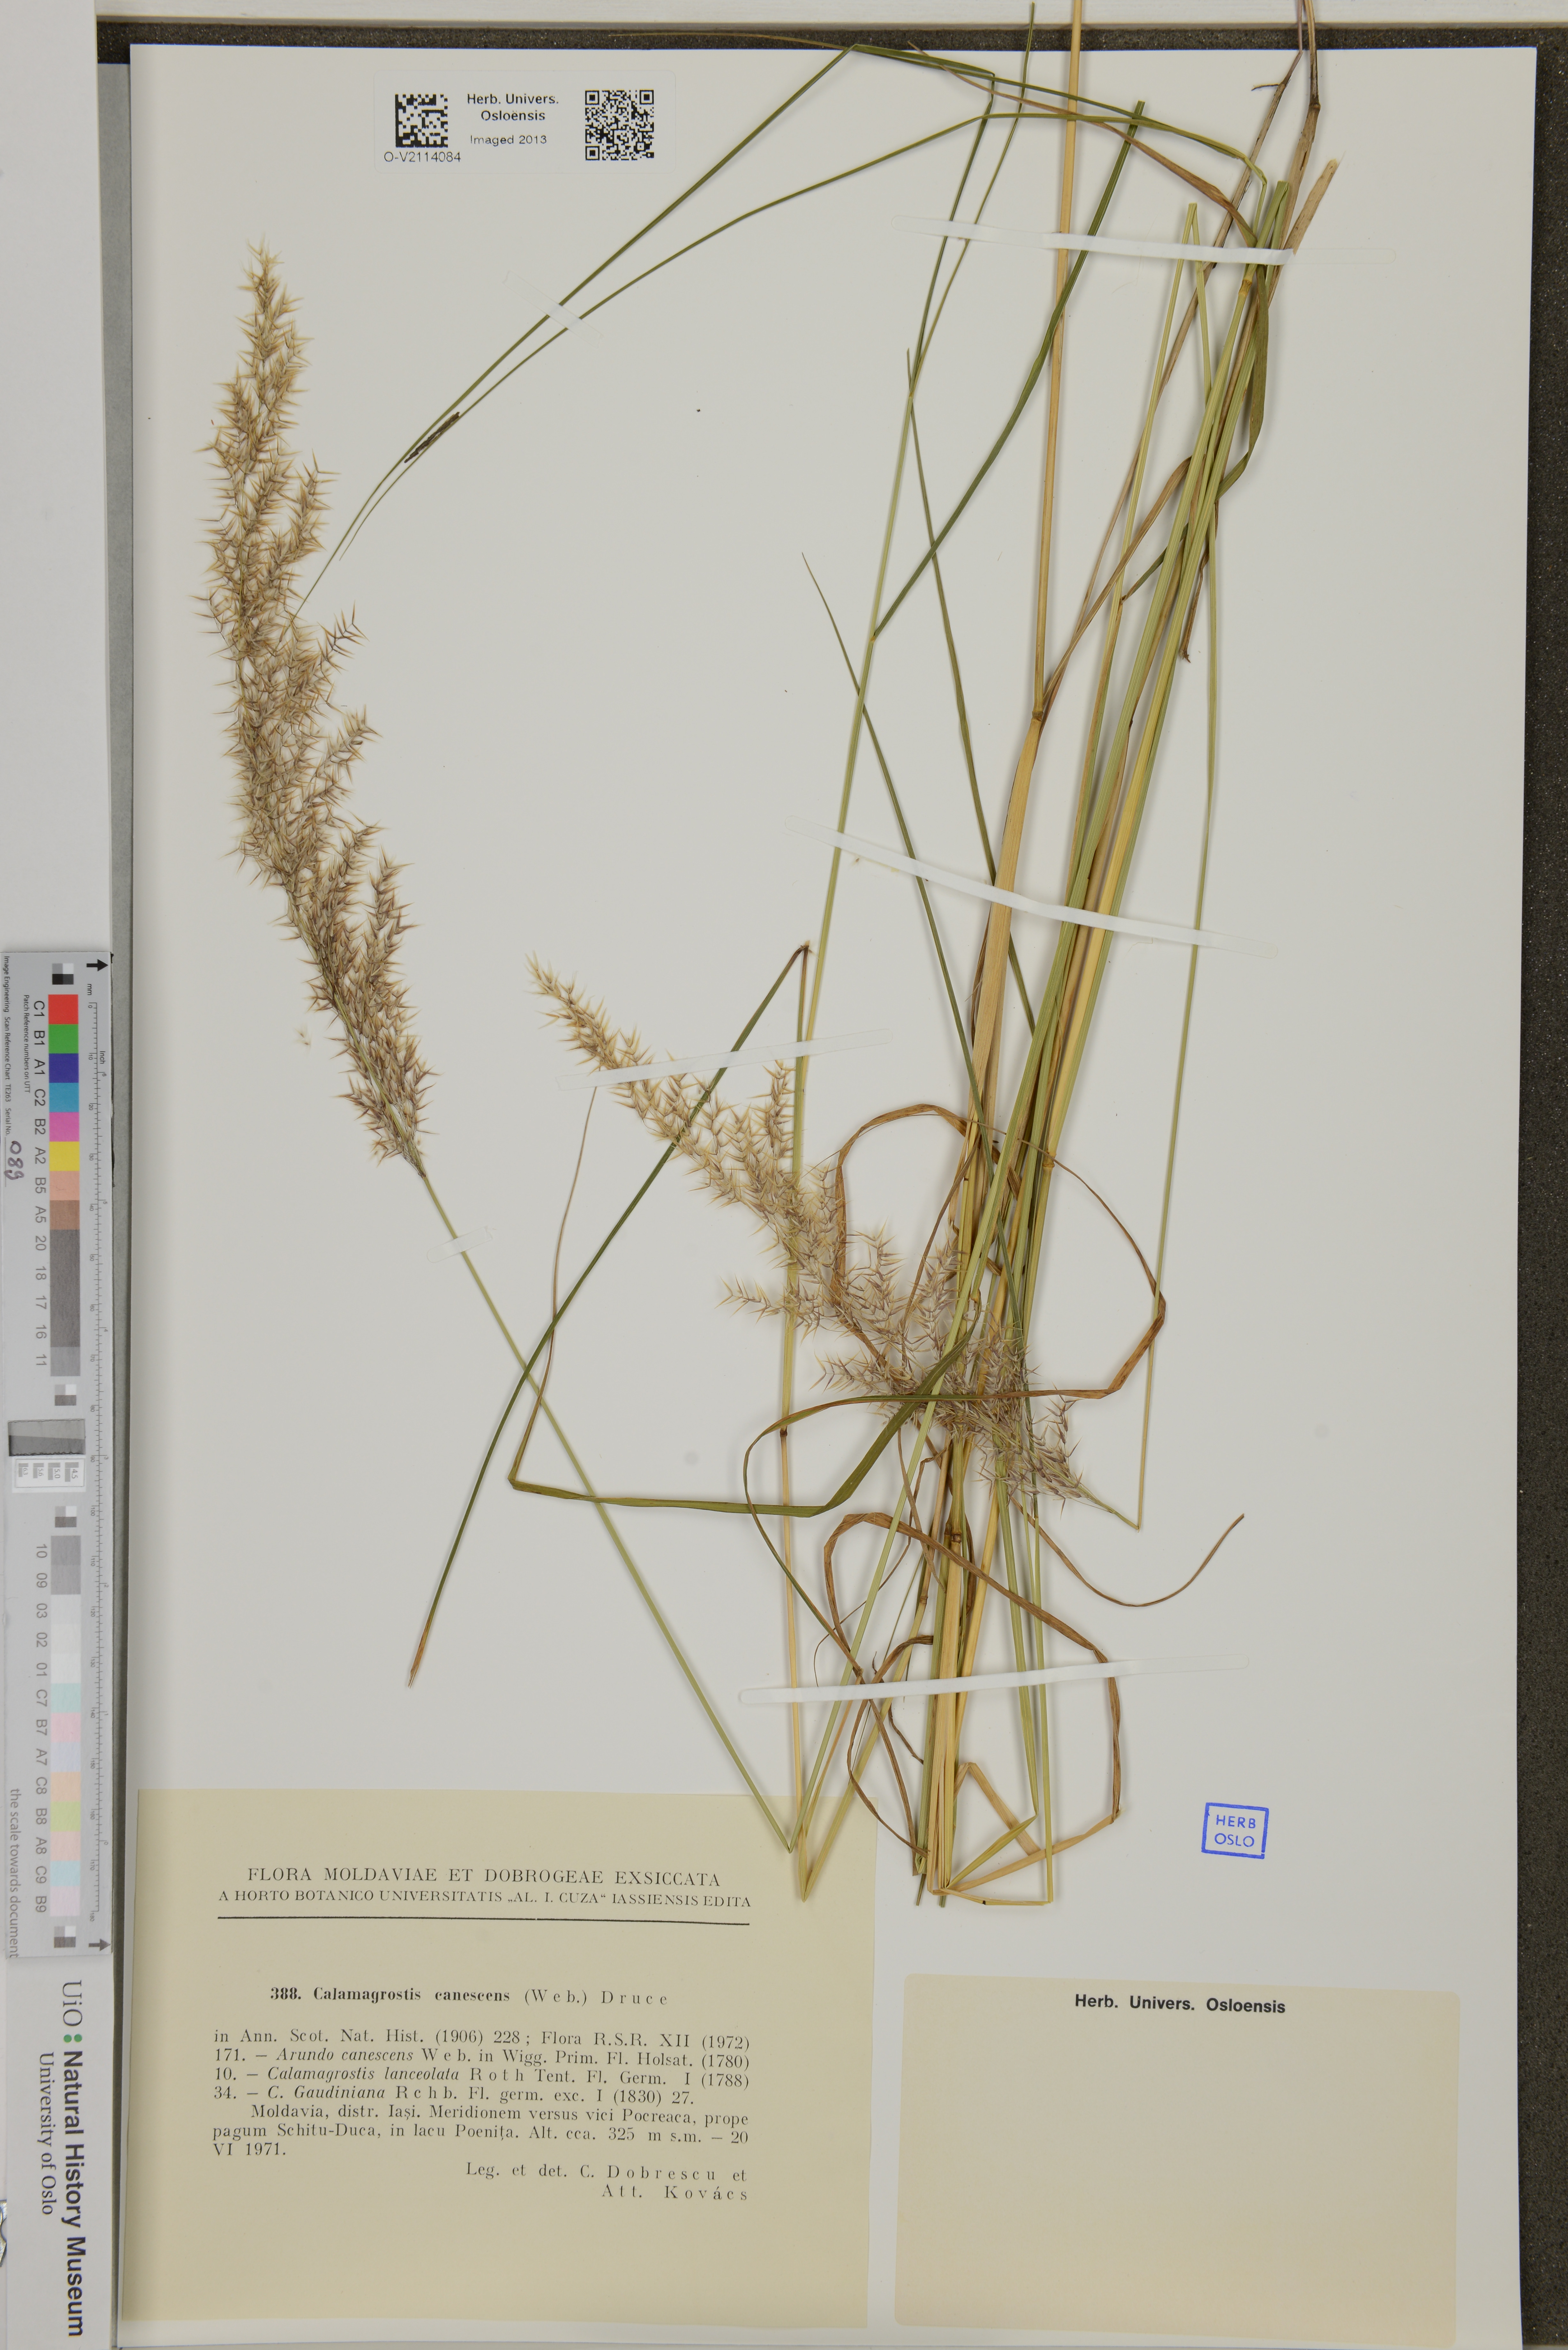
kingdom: Plantae
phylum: Tracheophyta
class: Liliopsida
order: Poales
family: Poaceae
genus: Calamagrostis
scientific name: Calamagrostis canescens
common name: Purple small-reed
